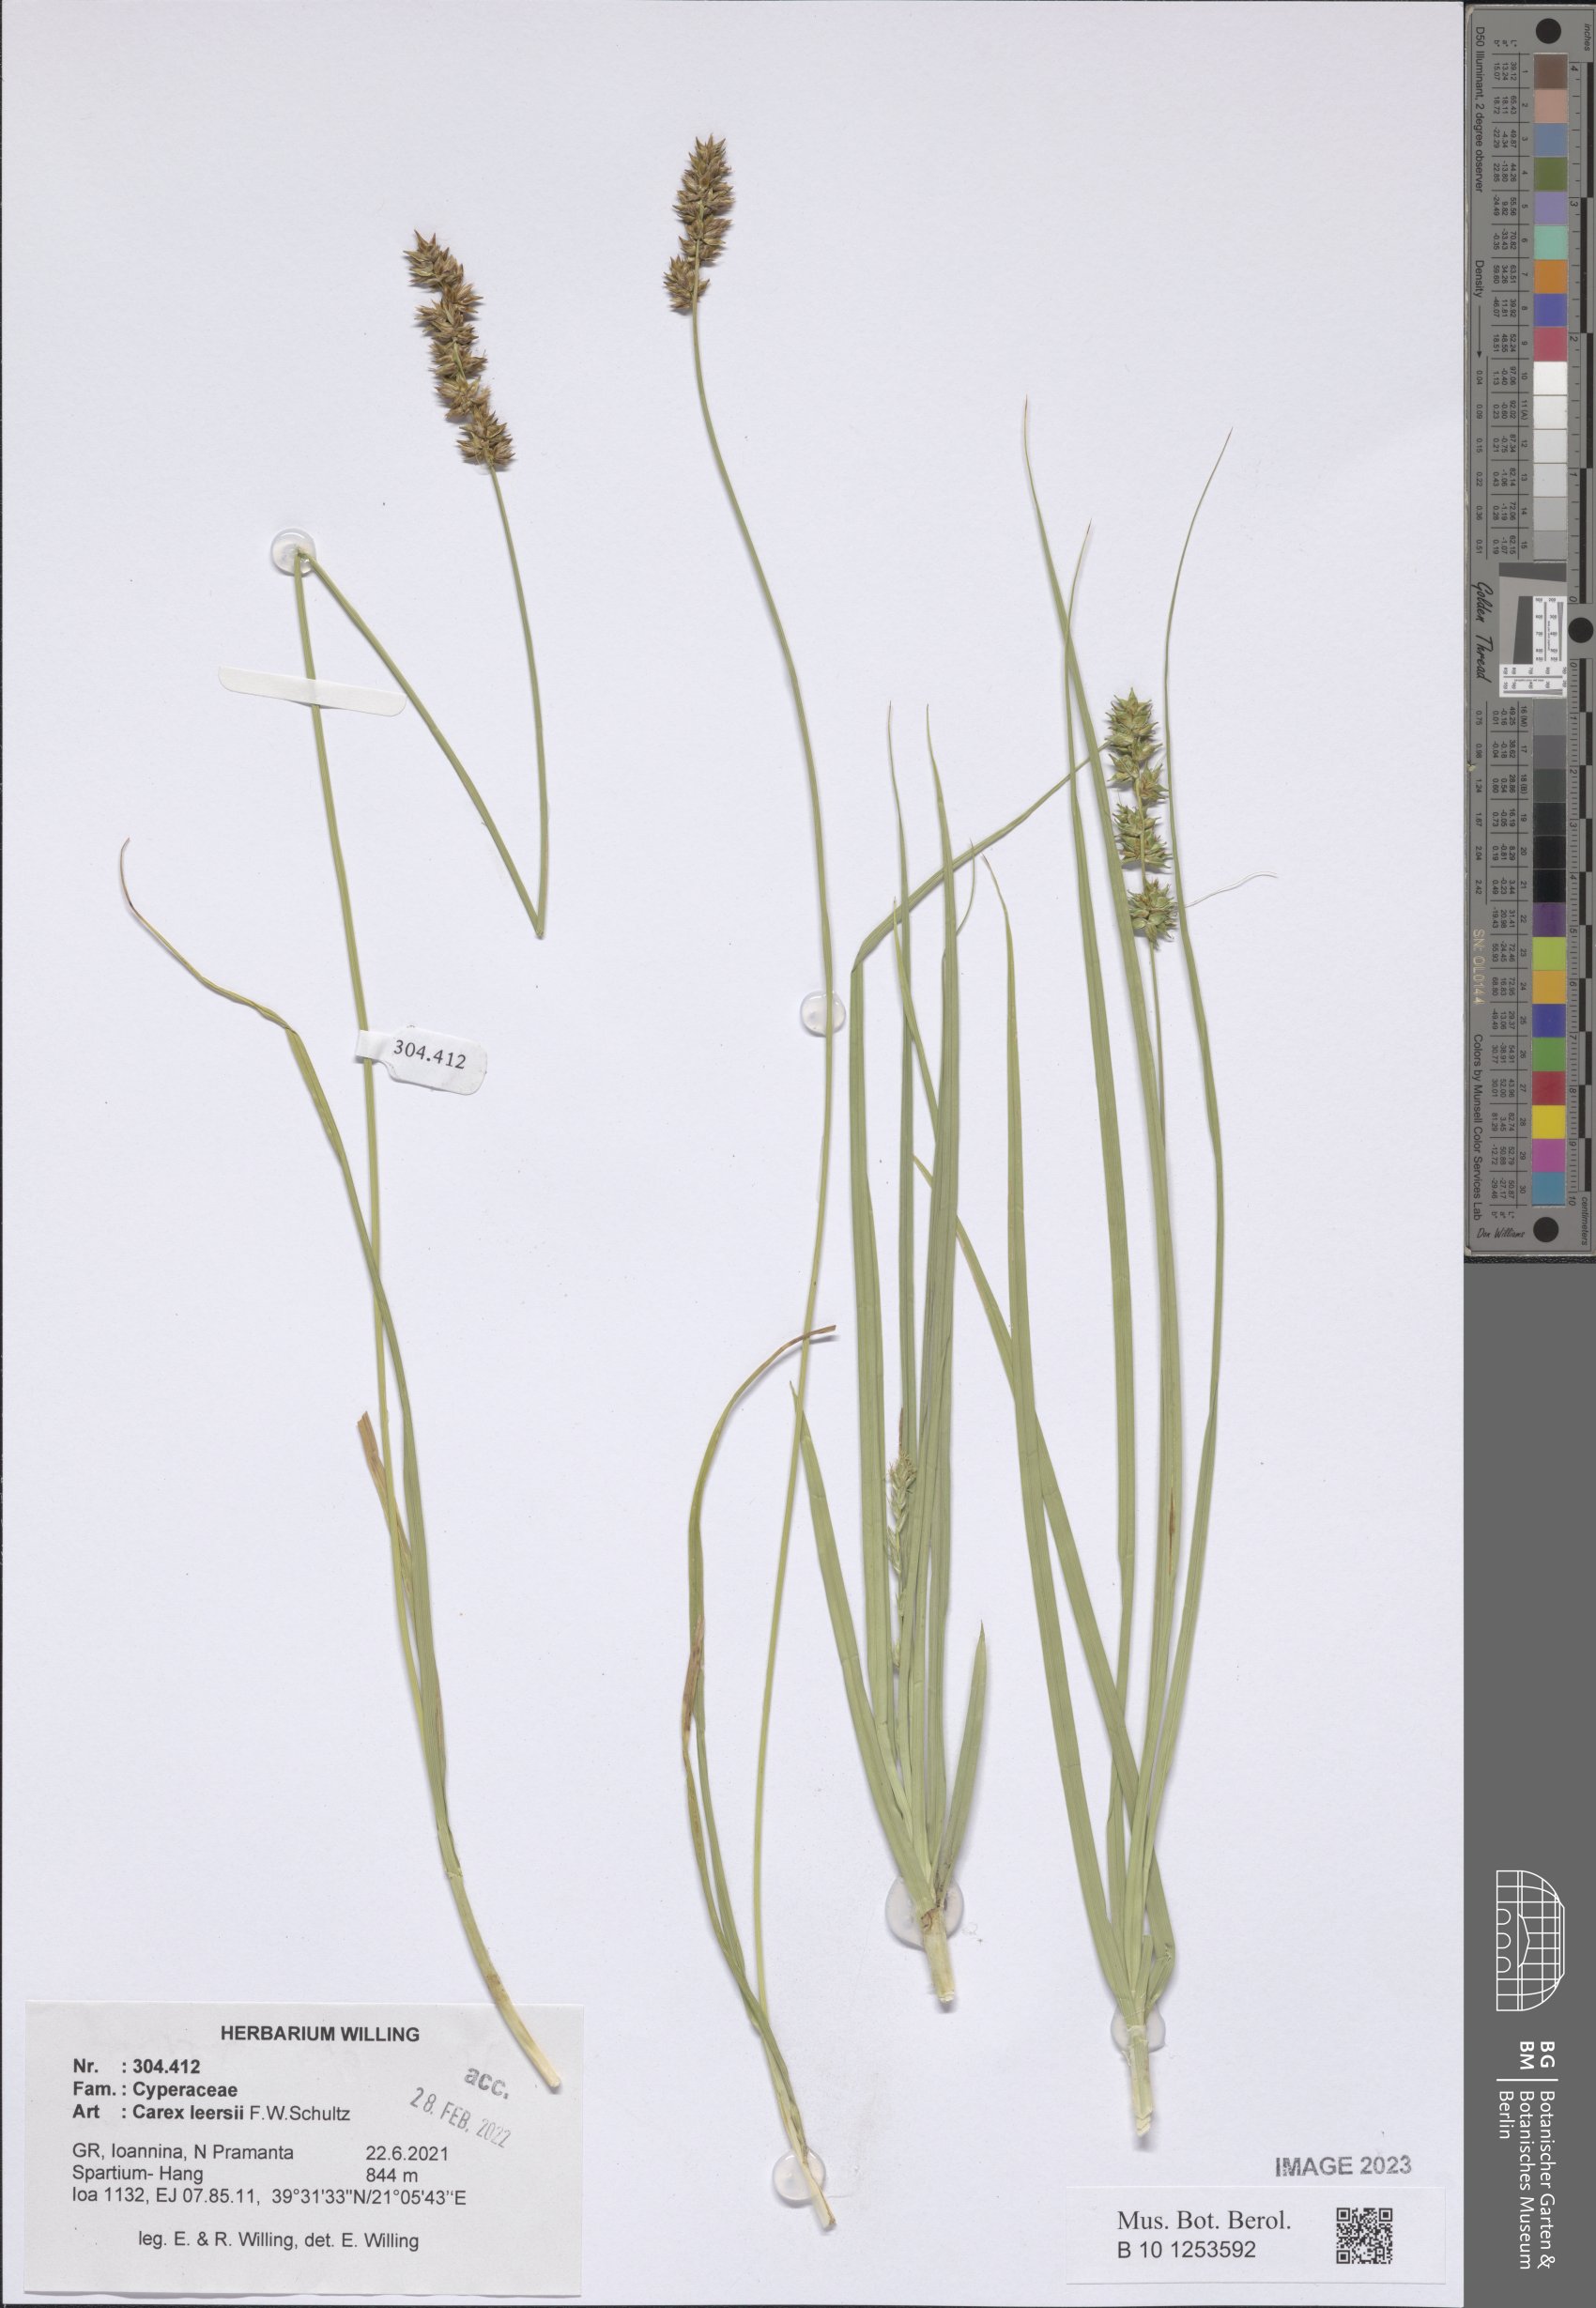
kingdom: Plantae
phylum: Tracheophyta
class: Liliopsida
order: Poales
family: Cyperaceae
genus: Carex
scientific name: Carex leersii
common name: Leers' sedge
